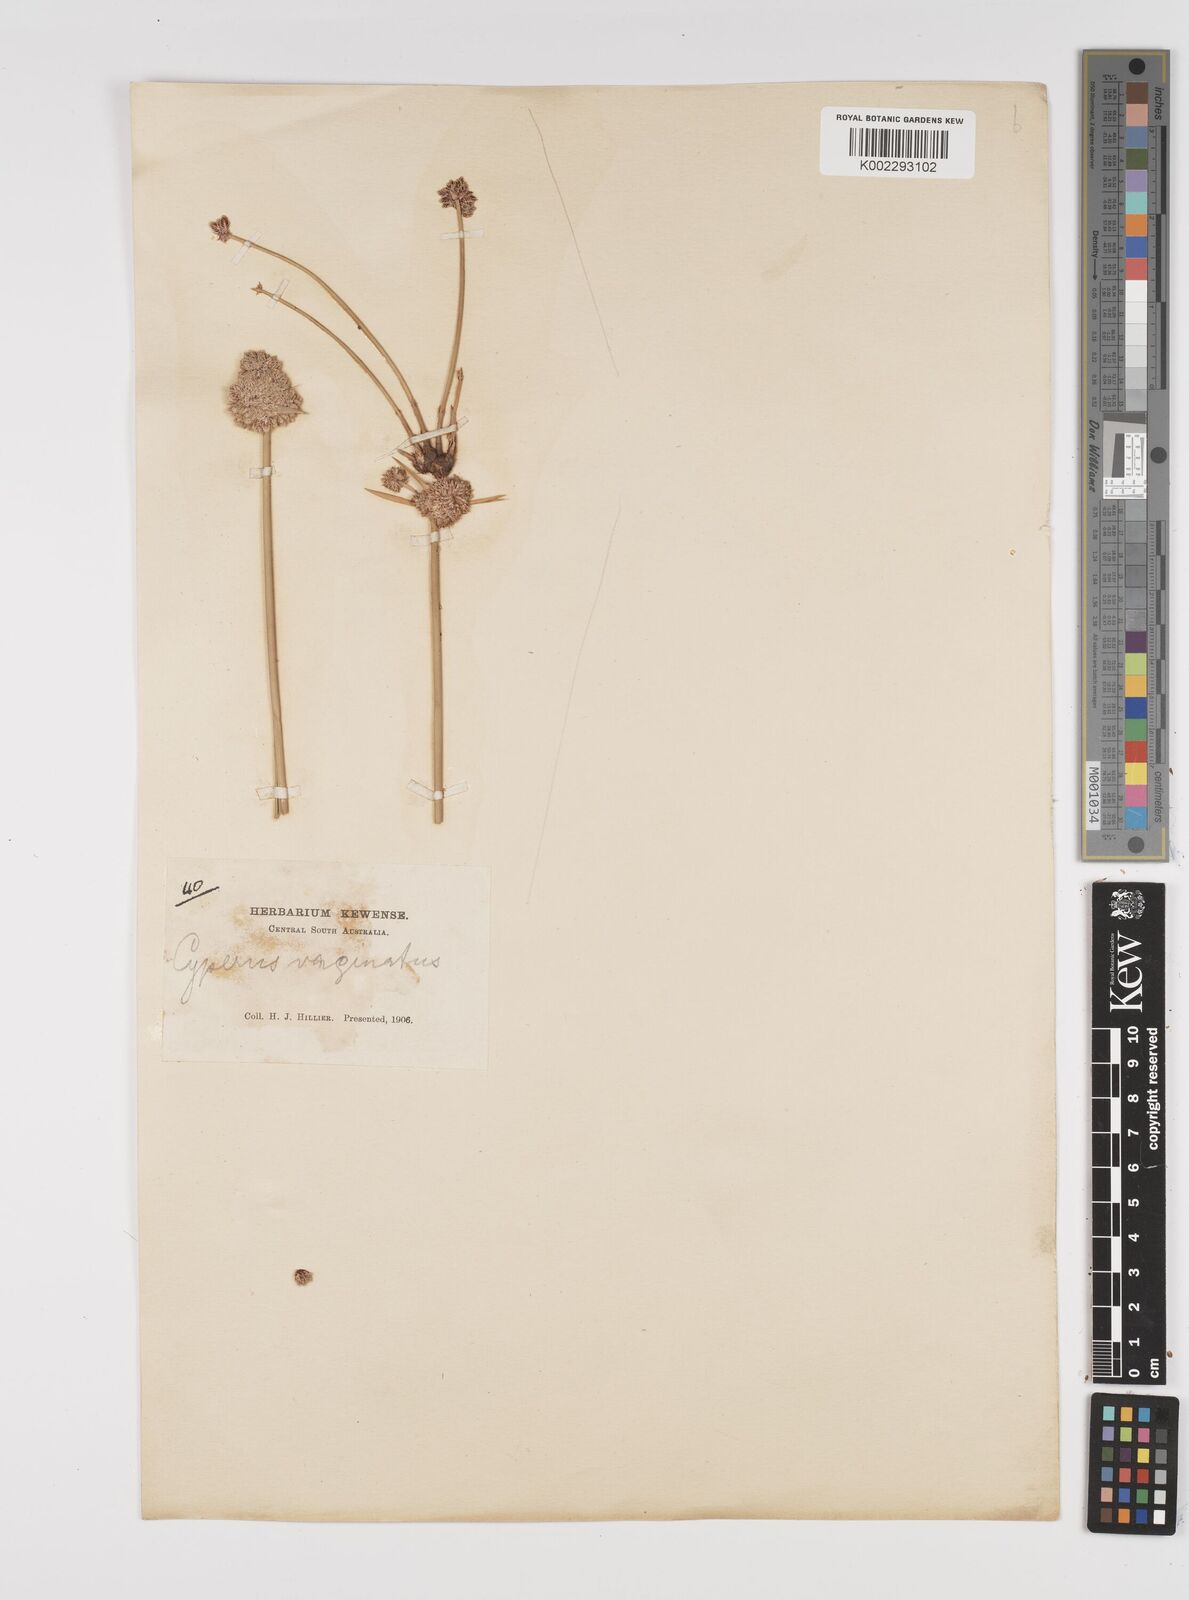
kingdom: Plantae
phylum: Tracheophyta
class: Liliopsida
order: Poales
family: Cyperaceae
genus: Cyperus
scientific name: Cyperus gymnocaulos
